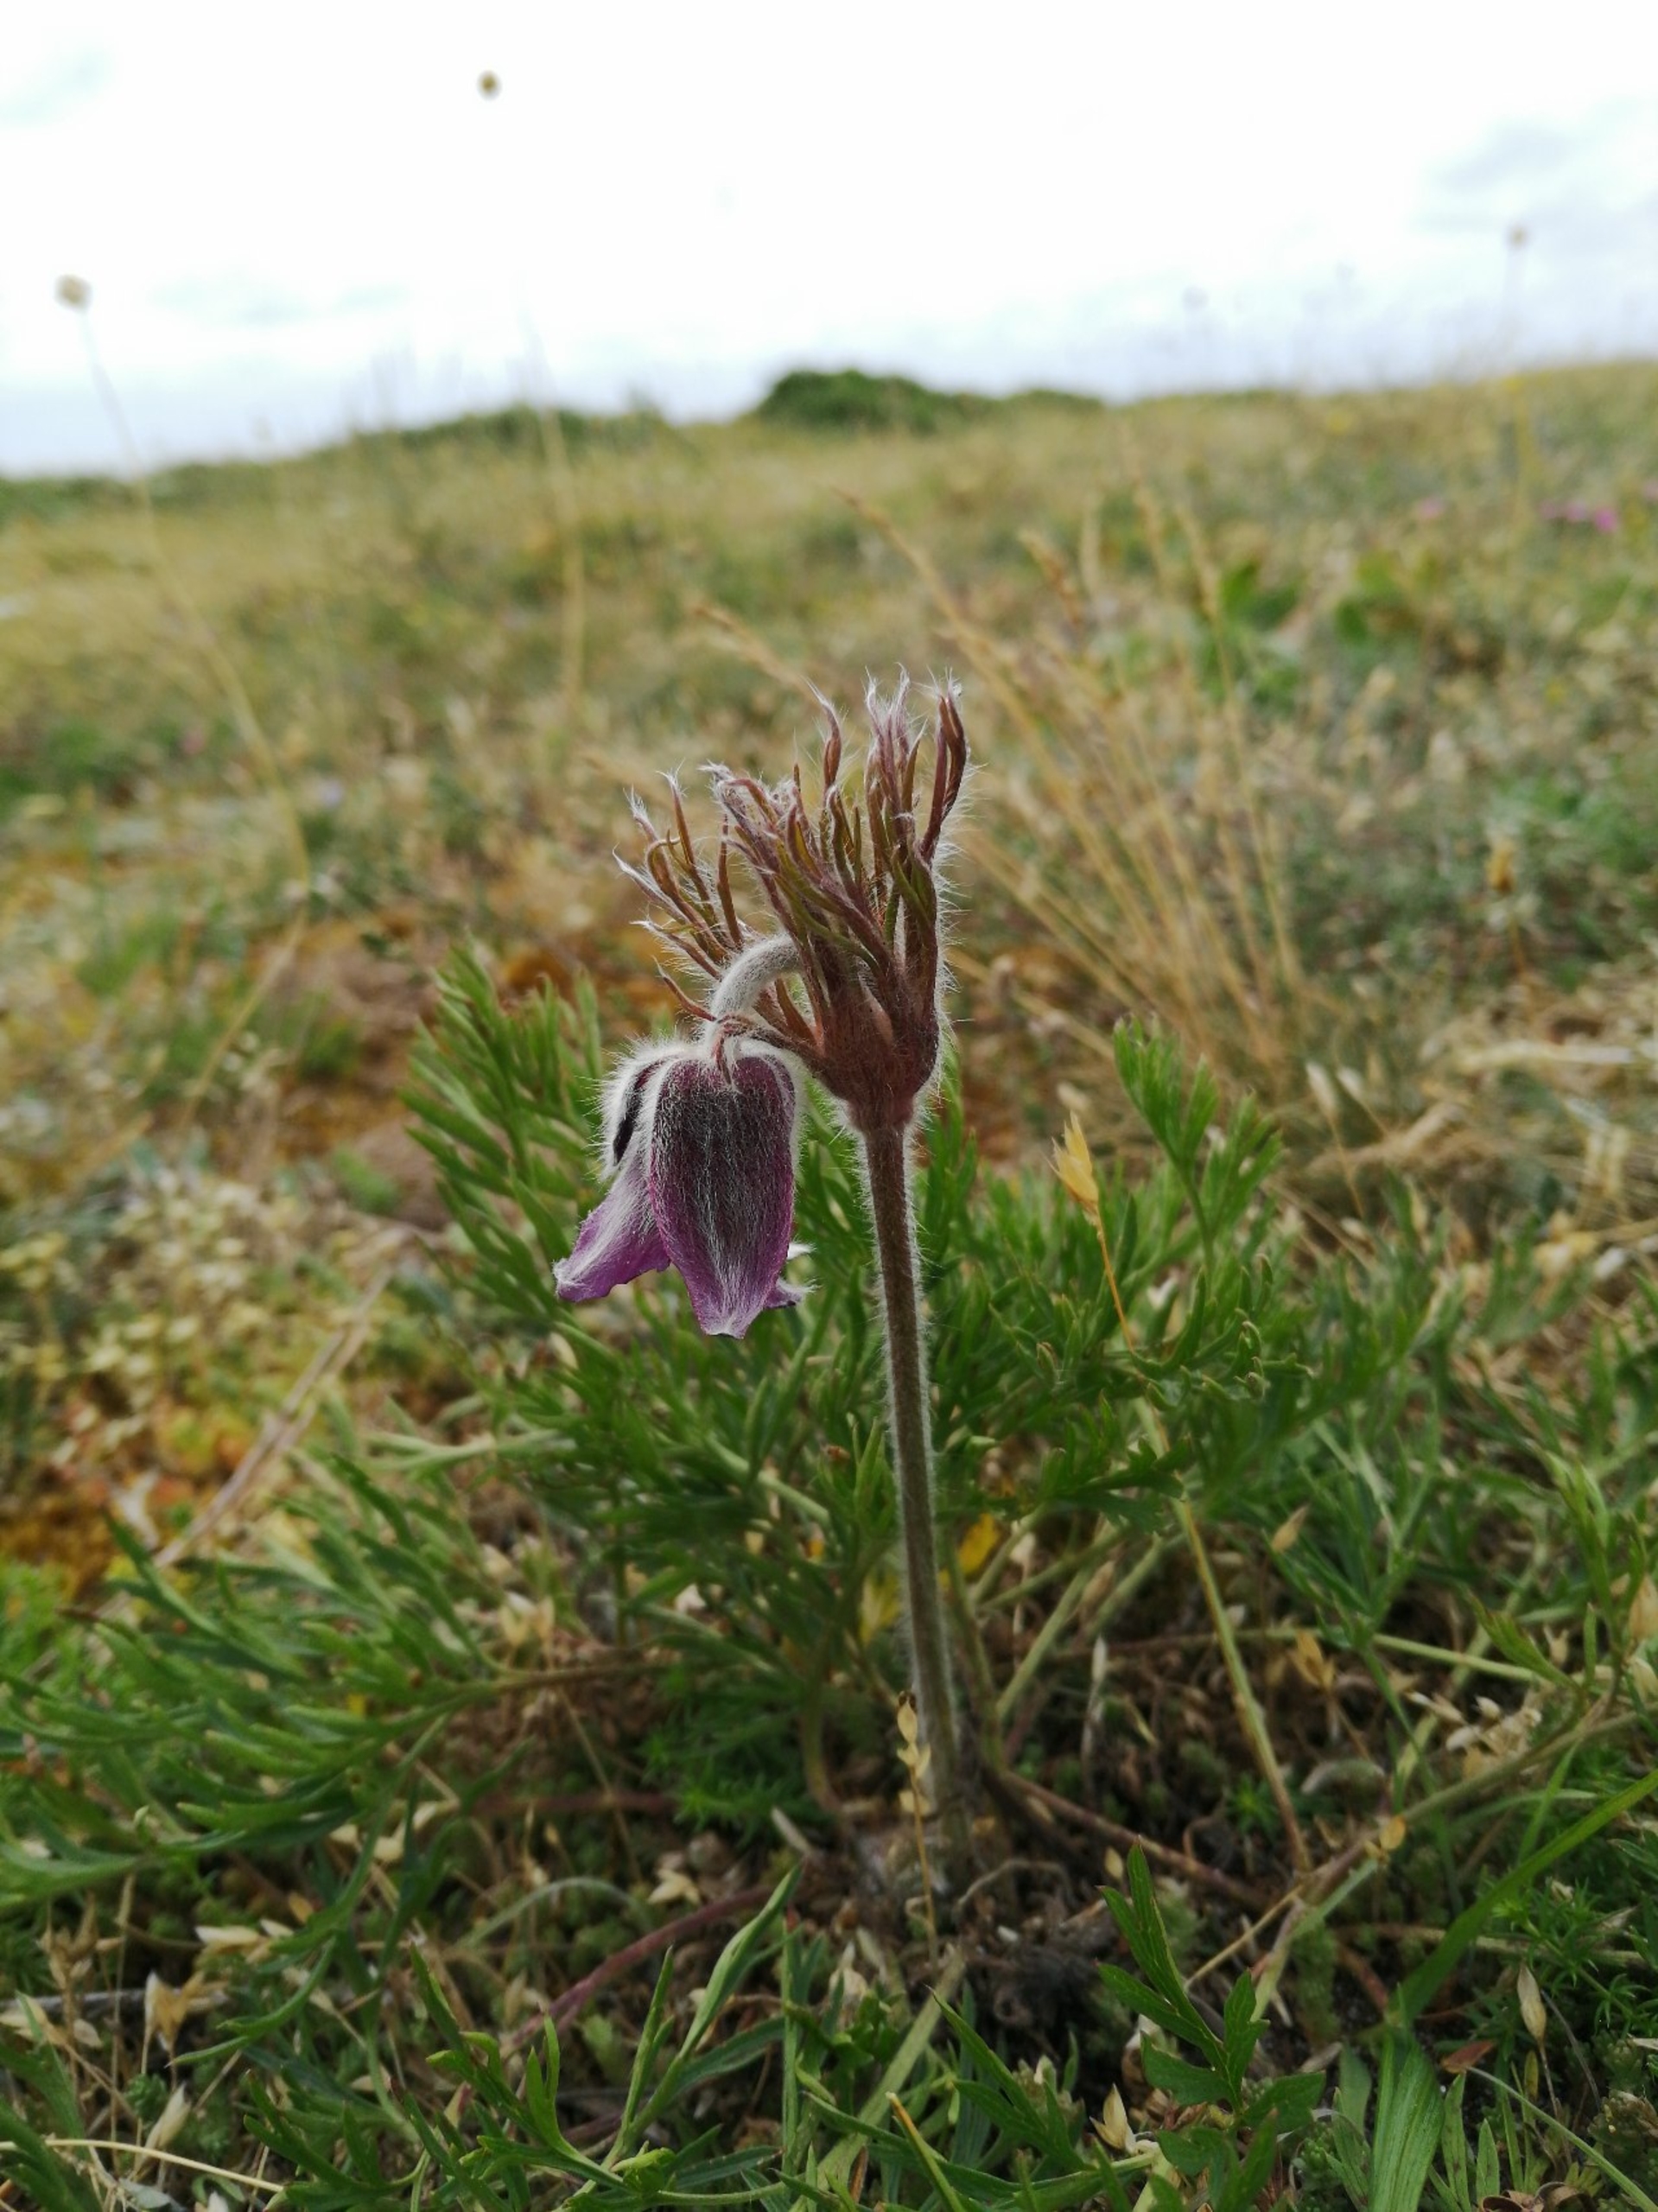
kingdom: Plantae
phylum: Tracheophyta
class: Magnoliopsida
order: Ranunculales
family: Ranunculaceae
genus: Pulsatilla
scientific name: Pulsatilla pratensis
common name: Nikkende kobjælde
